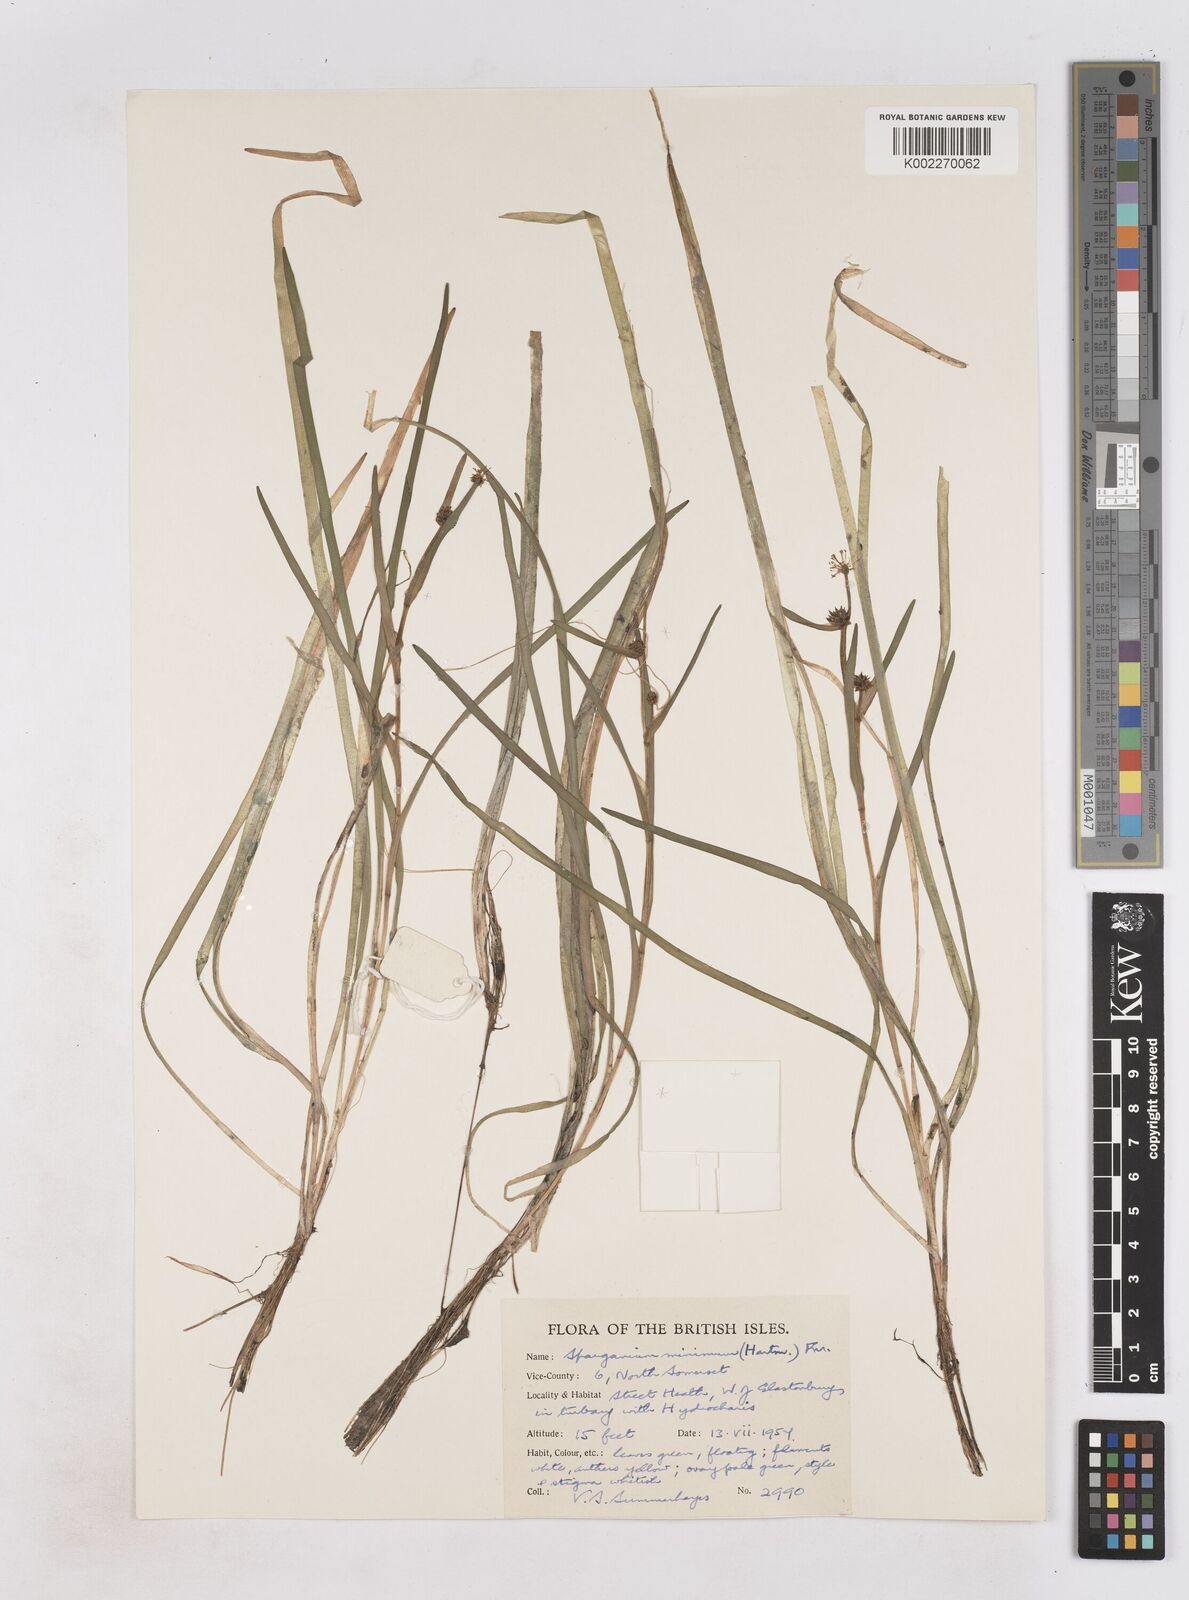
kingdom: Plantae
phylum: Tracheophyta
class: Liliopsida
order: Poales
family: Typhaceae
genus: Sparganium
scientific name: Sparganium natans
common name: Least bur-reed
